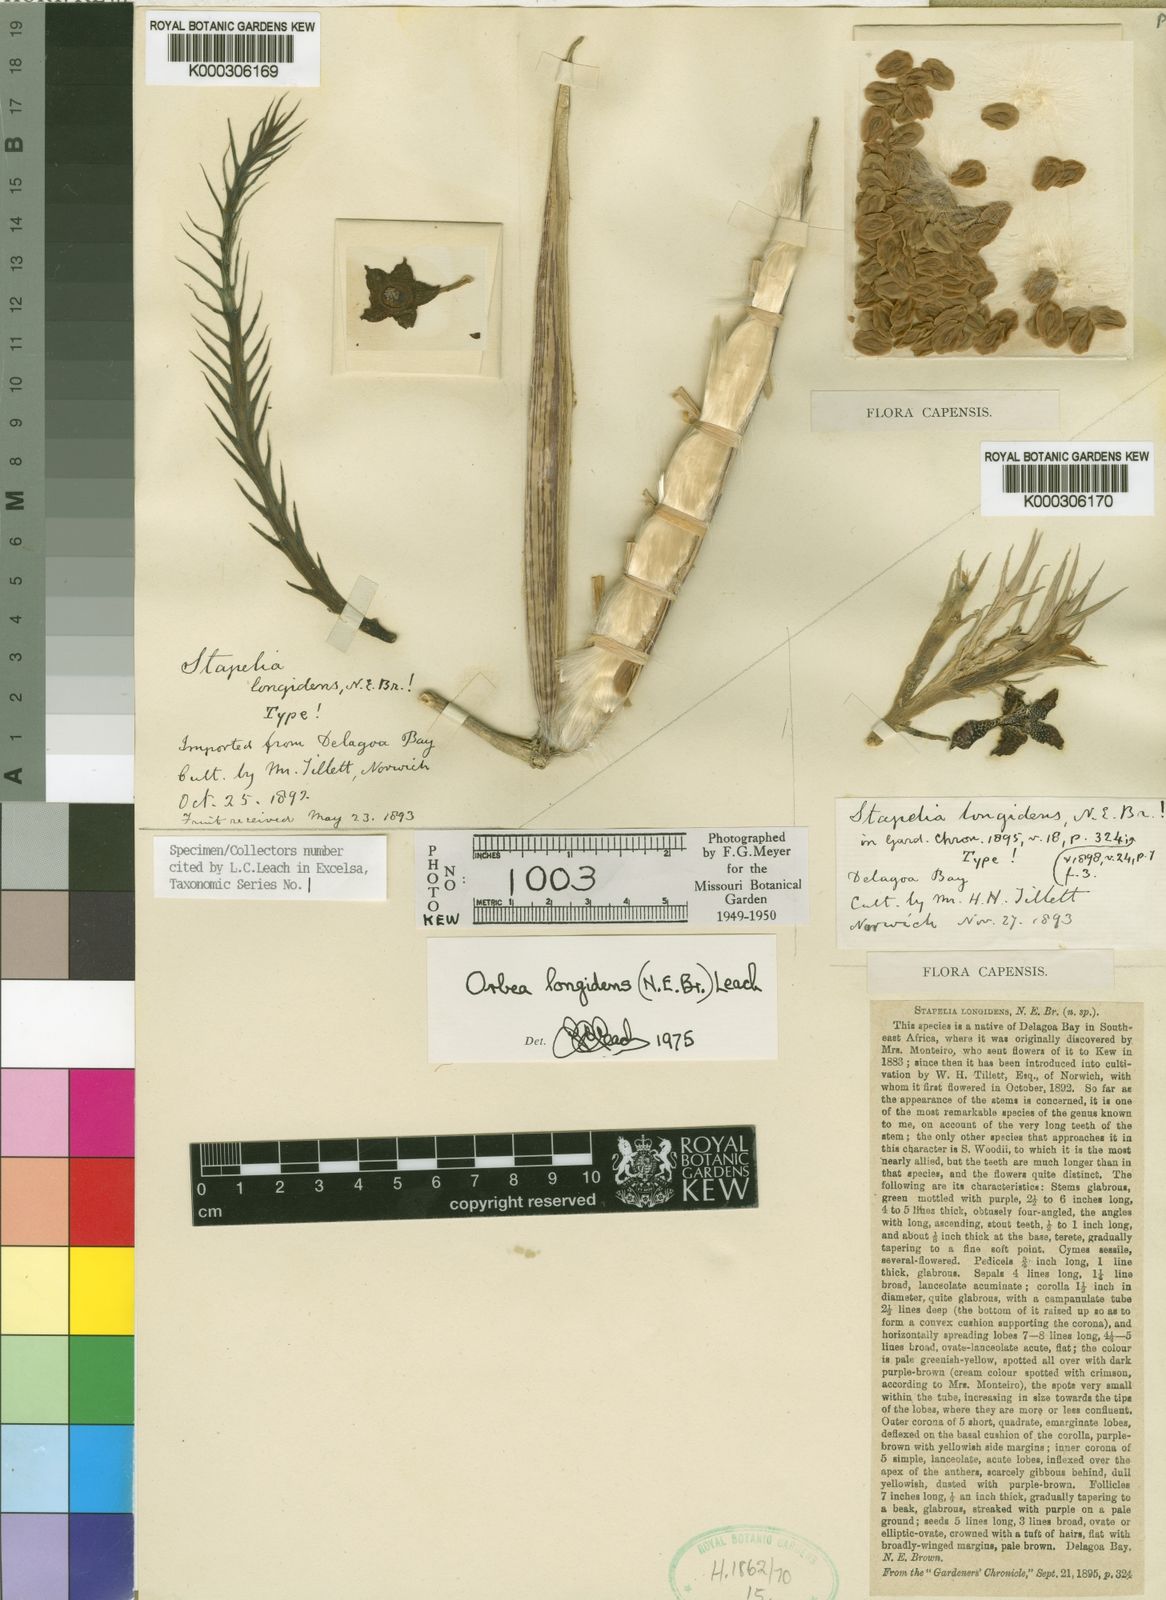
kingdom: Plantae
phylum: Tracheophyta
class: Magnoliopsida
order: Gentianales
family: Apocynaceae
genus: Ceropegia
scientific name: Ceropegia longidens
